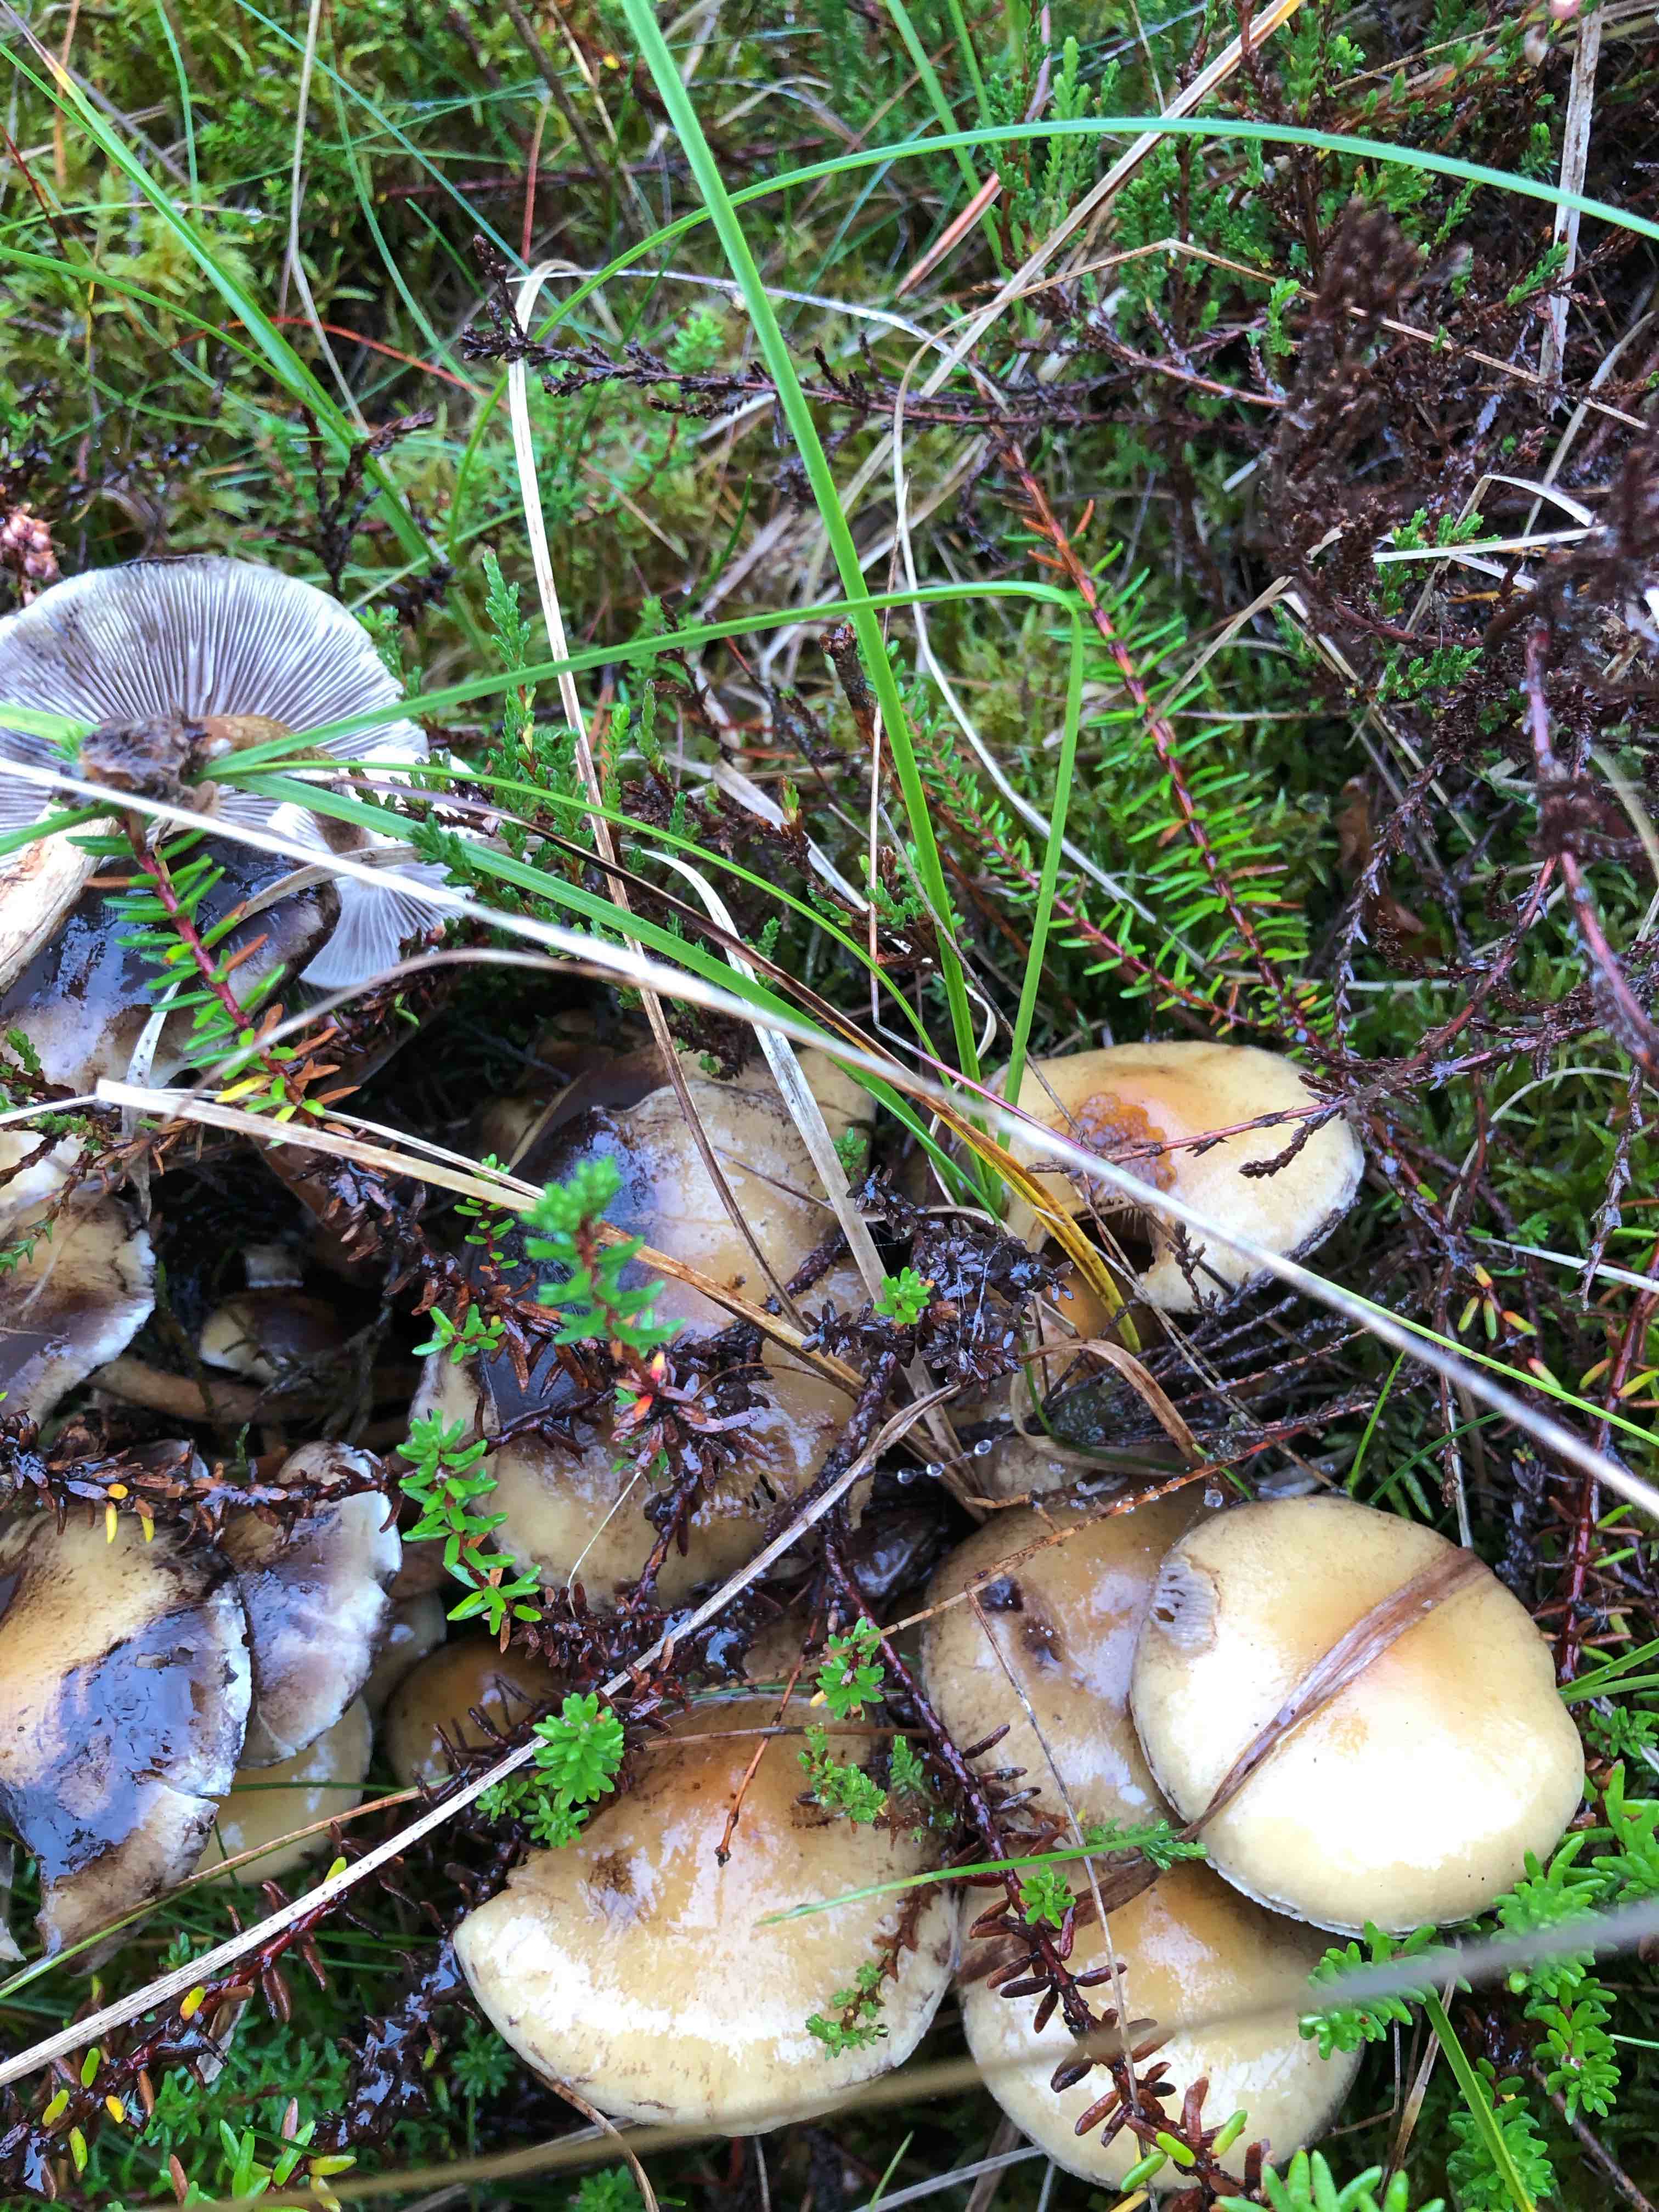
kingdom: Fungi
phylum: Basidiomycota
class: Agaricomycetes
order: Agaricales
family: Strophariaceae
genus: Hypholoma
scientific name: Hypholoma capnoides
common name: gran-svovlhat
